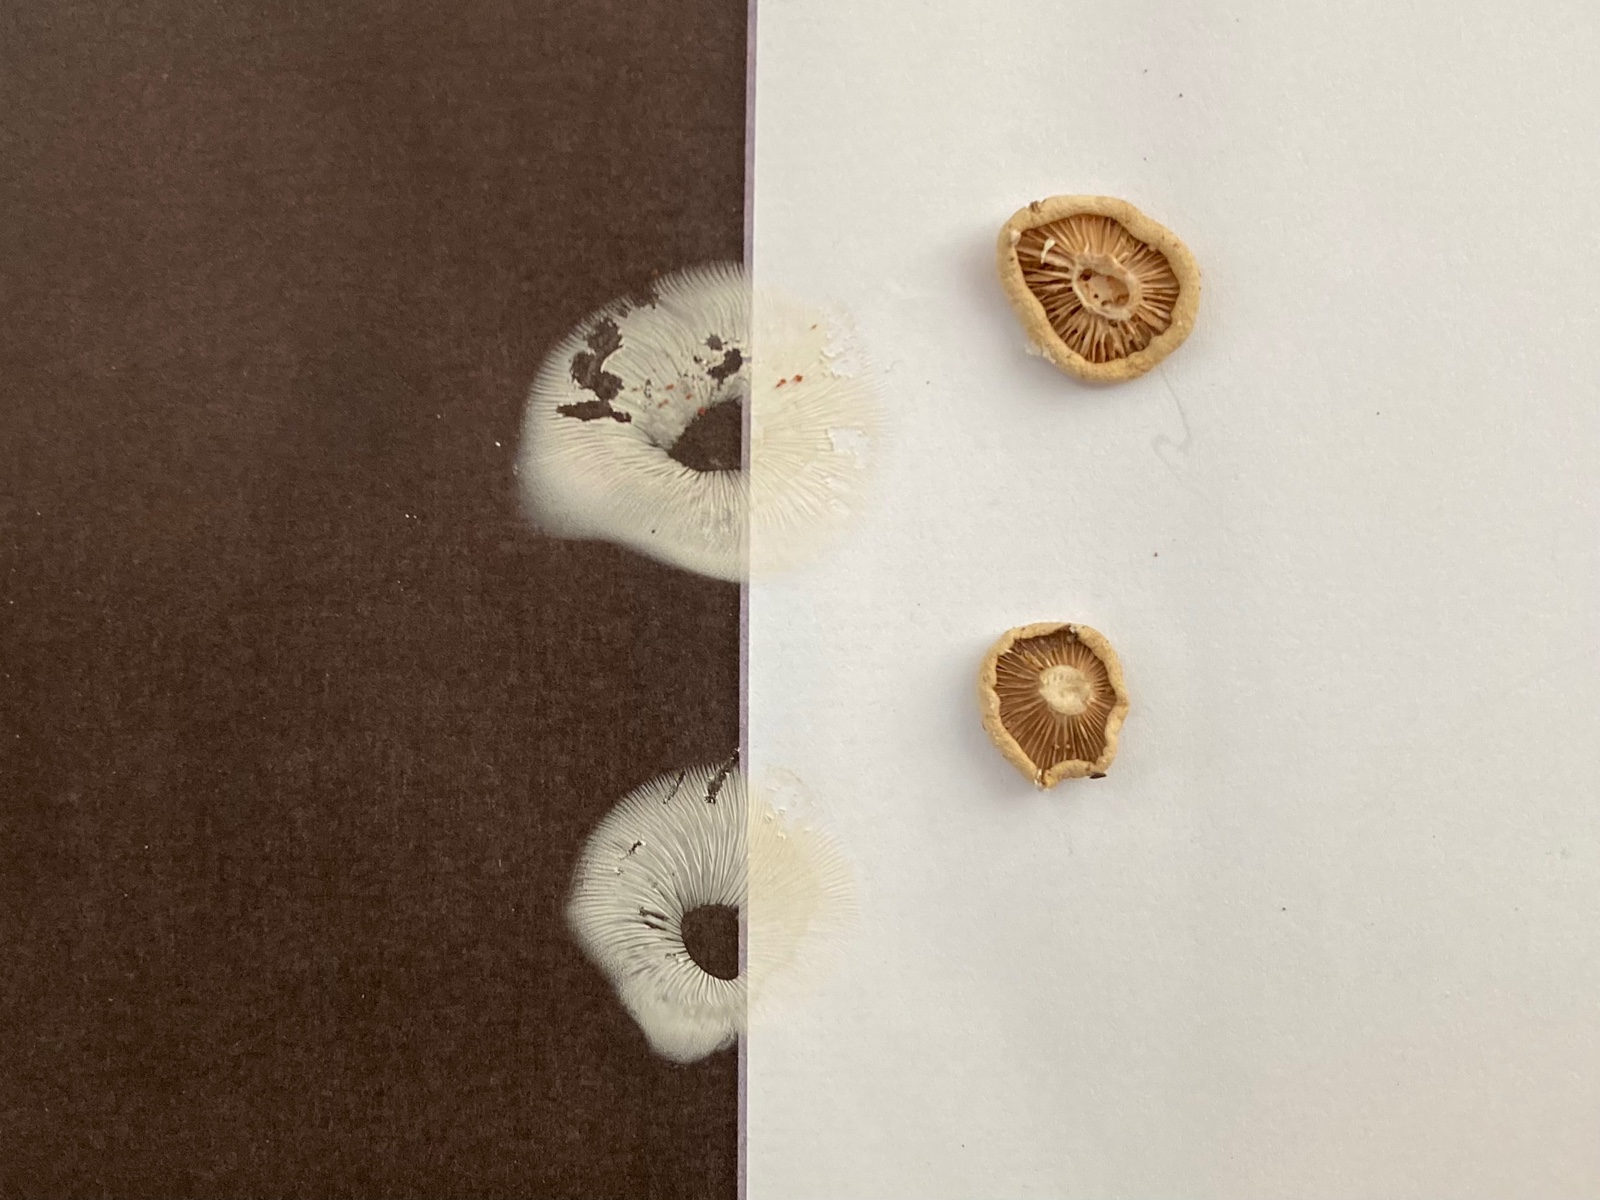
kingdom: Fungi
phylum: Basidiomycota
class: Agaricomycetes
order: Agaricales
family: Tricholomataceae
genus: Clitocybe
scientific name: Clitocybe agrestis
